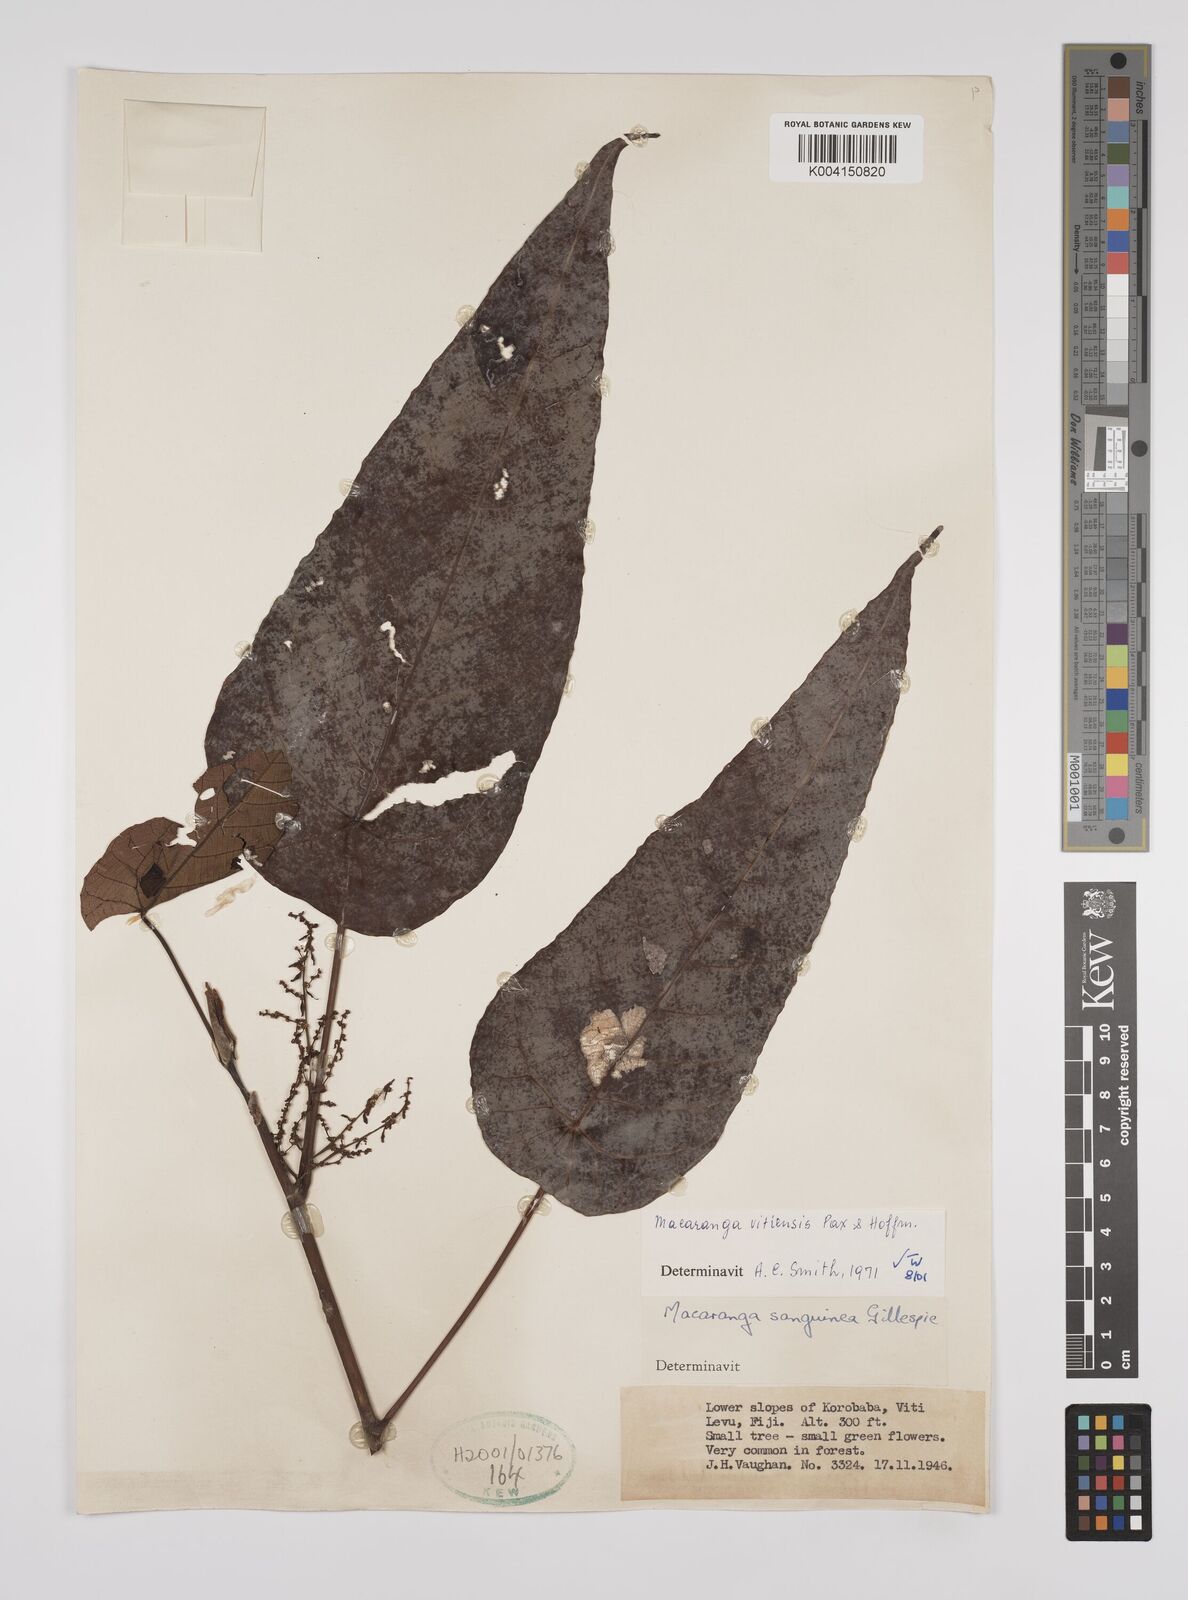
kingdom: Plantae
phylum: Tracheophyta
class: Magnoliopsida
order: Malpighiales
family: Euphorbiaceae
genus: Macaranga
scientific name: Macaranga vitiensis
